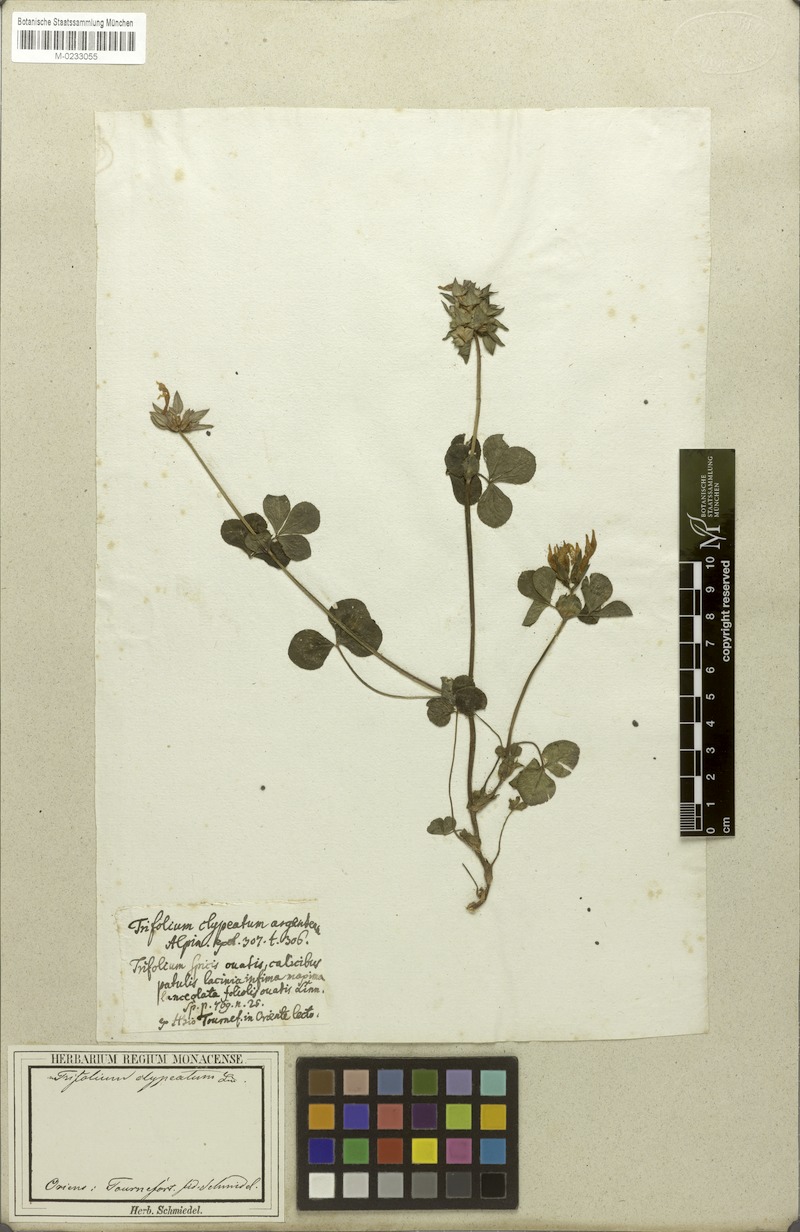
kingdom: Plantae
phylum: Tracheophyta
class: Magnoliopsida
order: Fabales
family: Fabaceae
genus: Trifolium
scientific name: Trifolium clypeatum
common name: Shield clover
